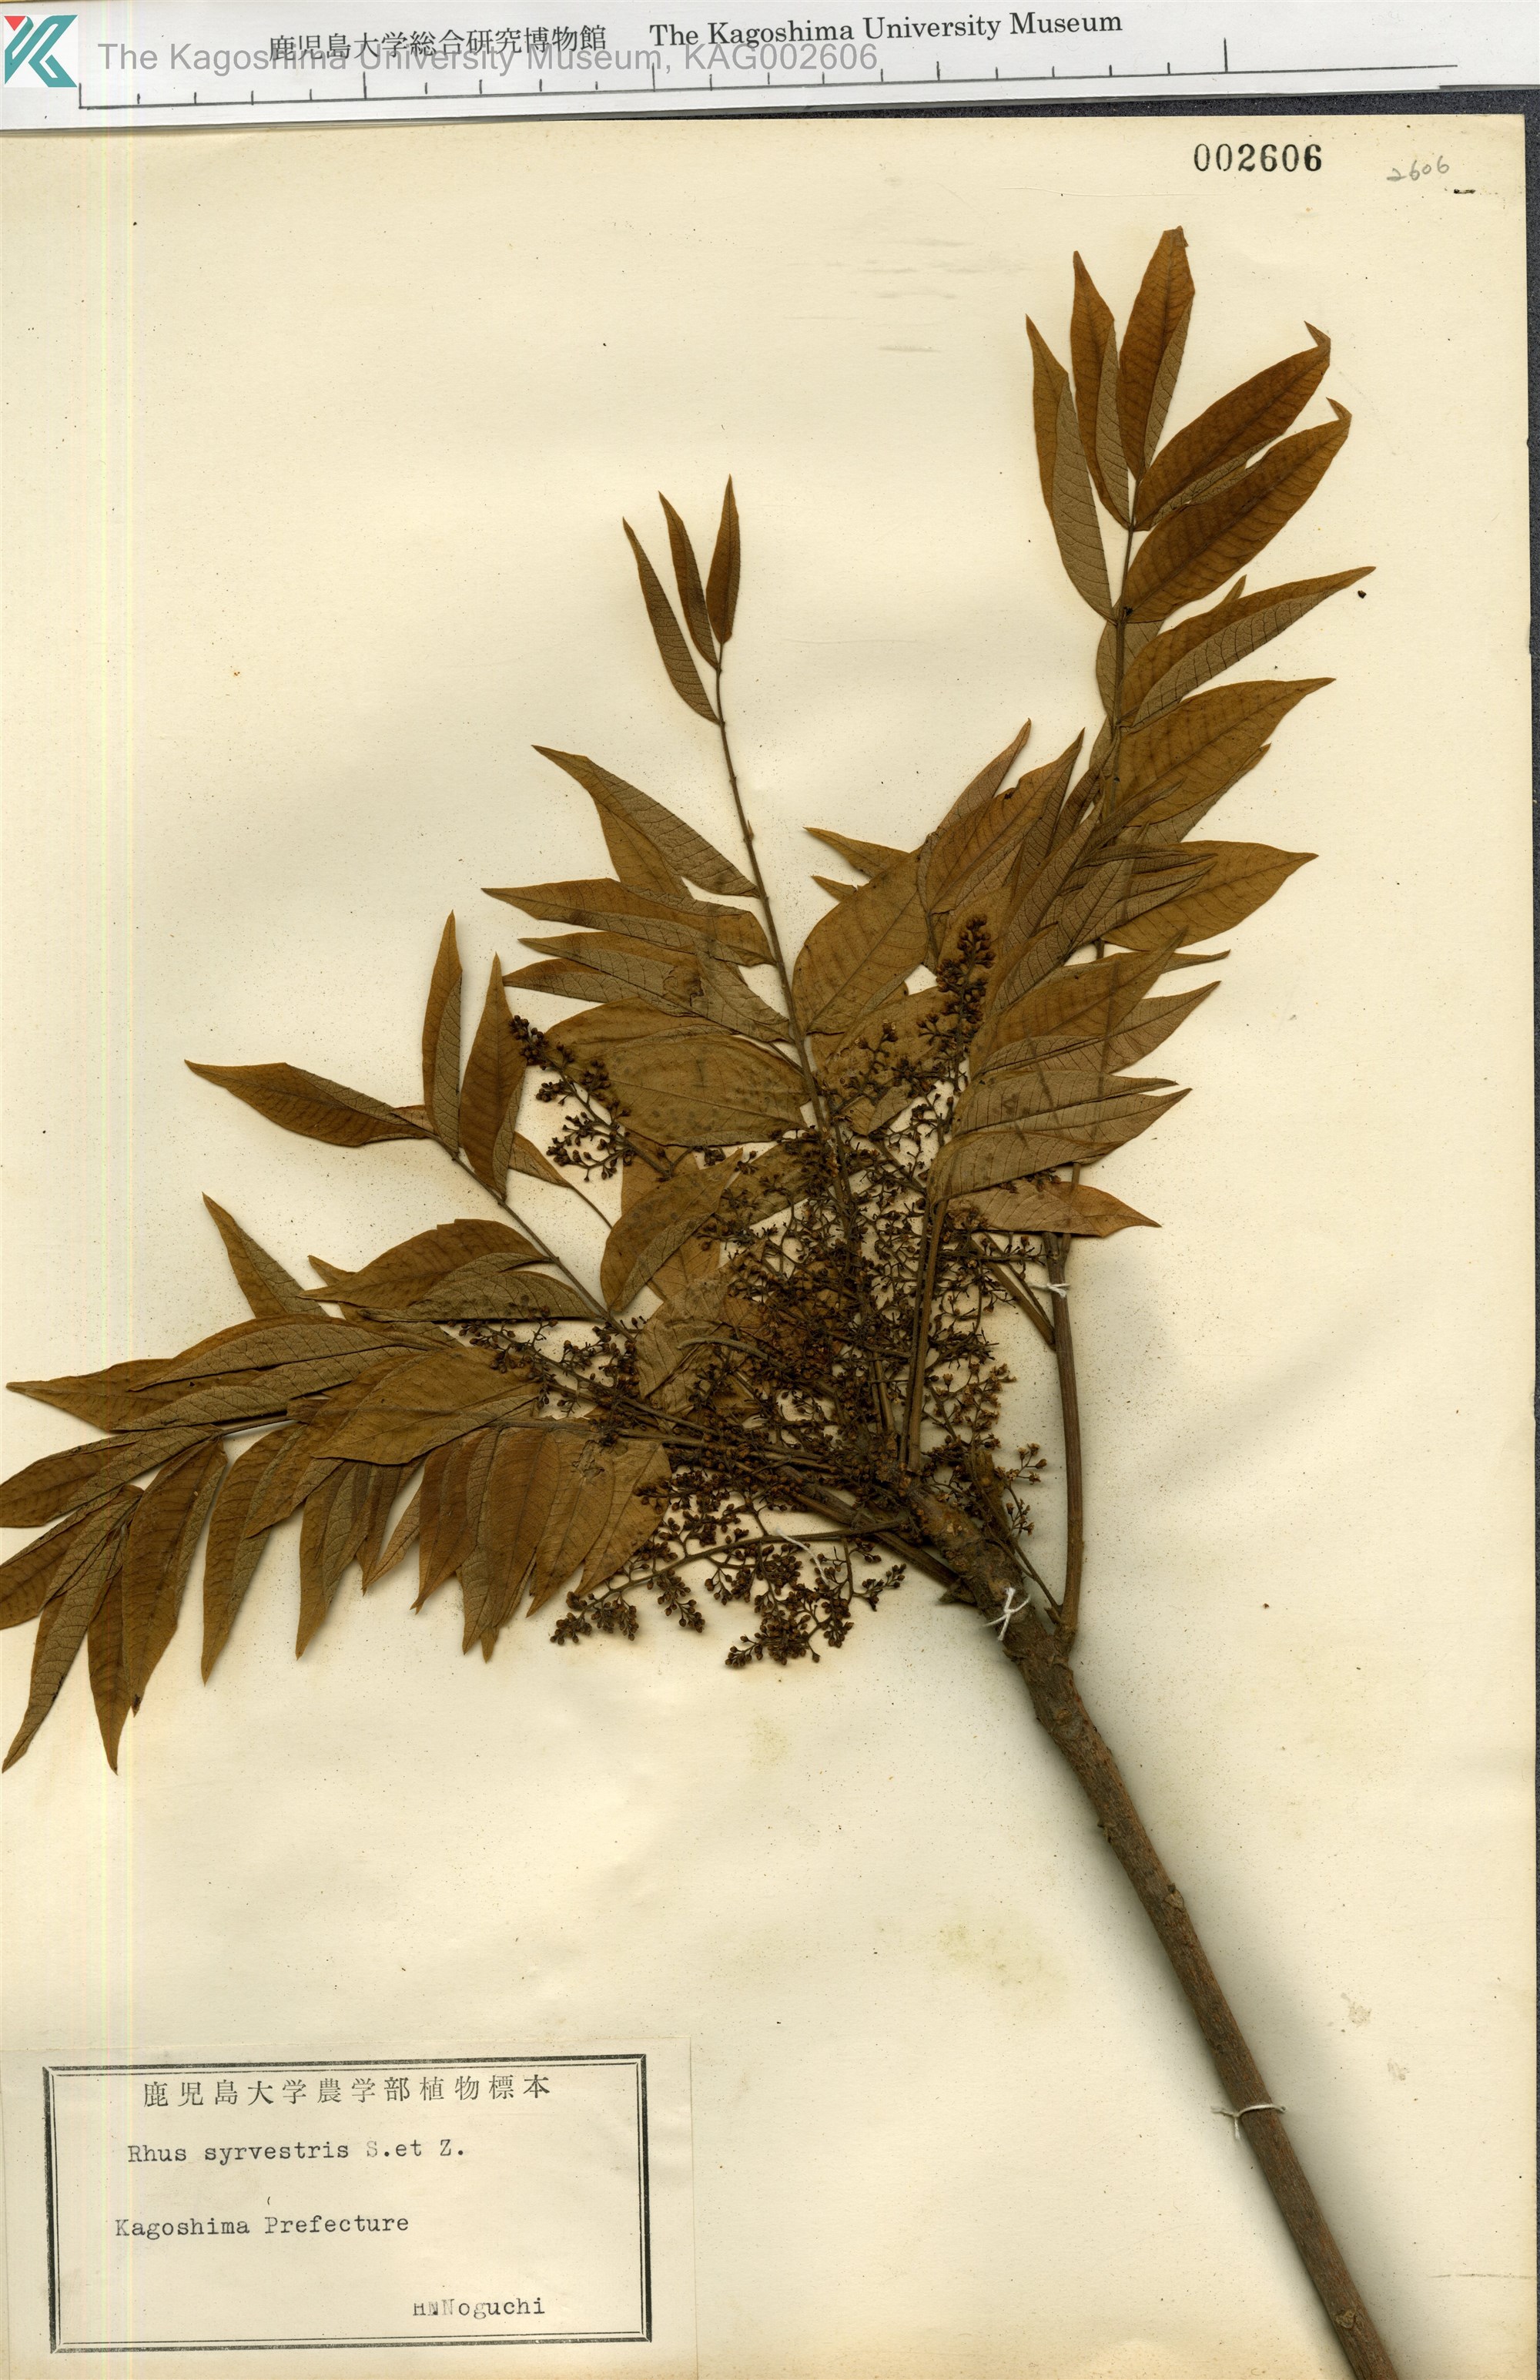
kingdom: Plantae
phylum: Tracheophyta
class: Magnoliopsida
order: Sapindales
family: Anacardiaceae
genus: Toxicodendron
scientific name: Toxicodendron sylvestre
